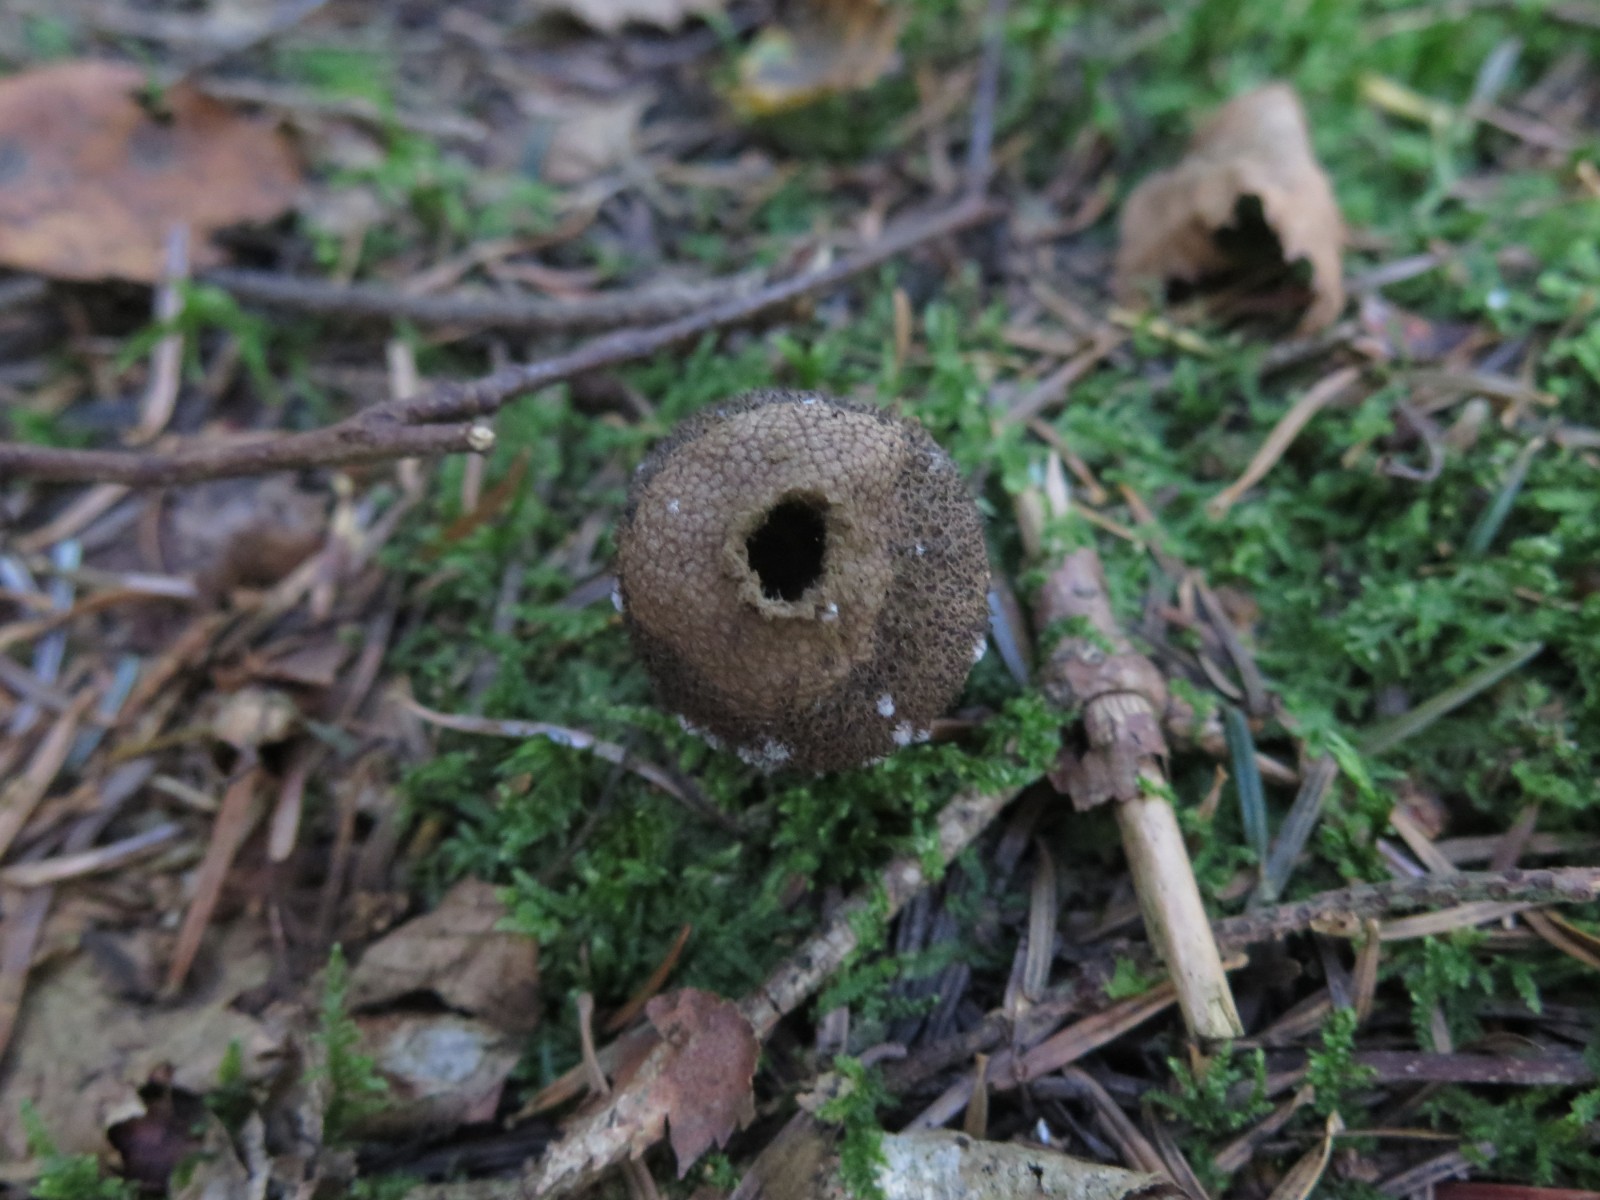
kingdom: Fungi
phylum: Basidiomycota
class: Agaricomycetes
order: Agaricales
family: Lycoperdaceae
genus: Lycoperdon
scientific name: Lycoperdon nigrescens
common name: sortagtig støvbold
